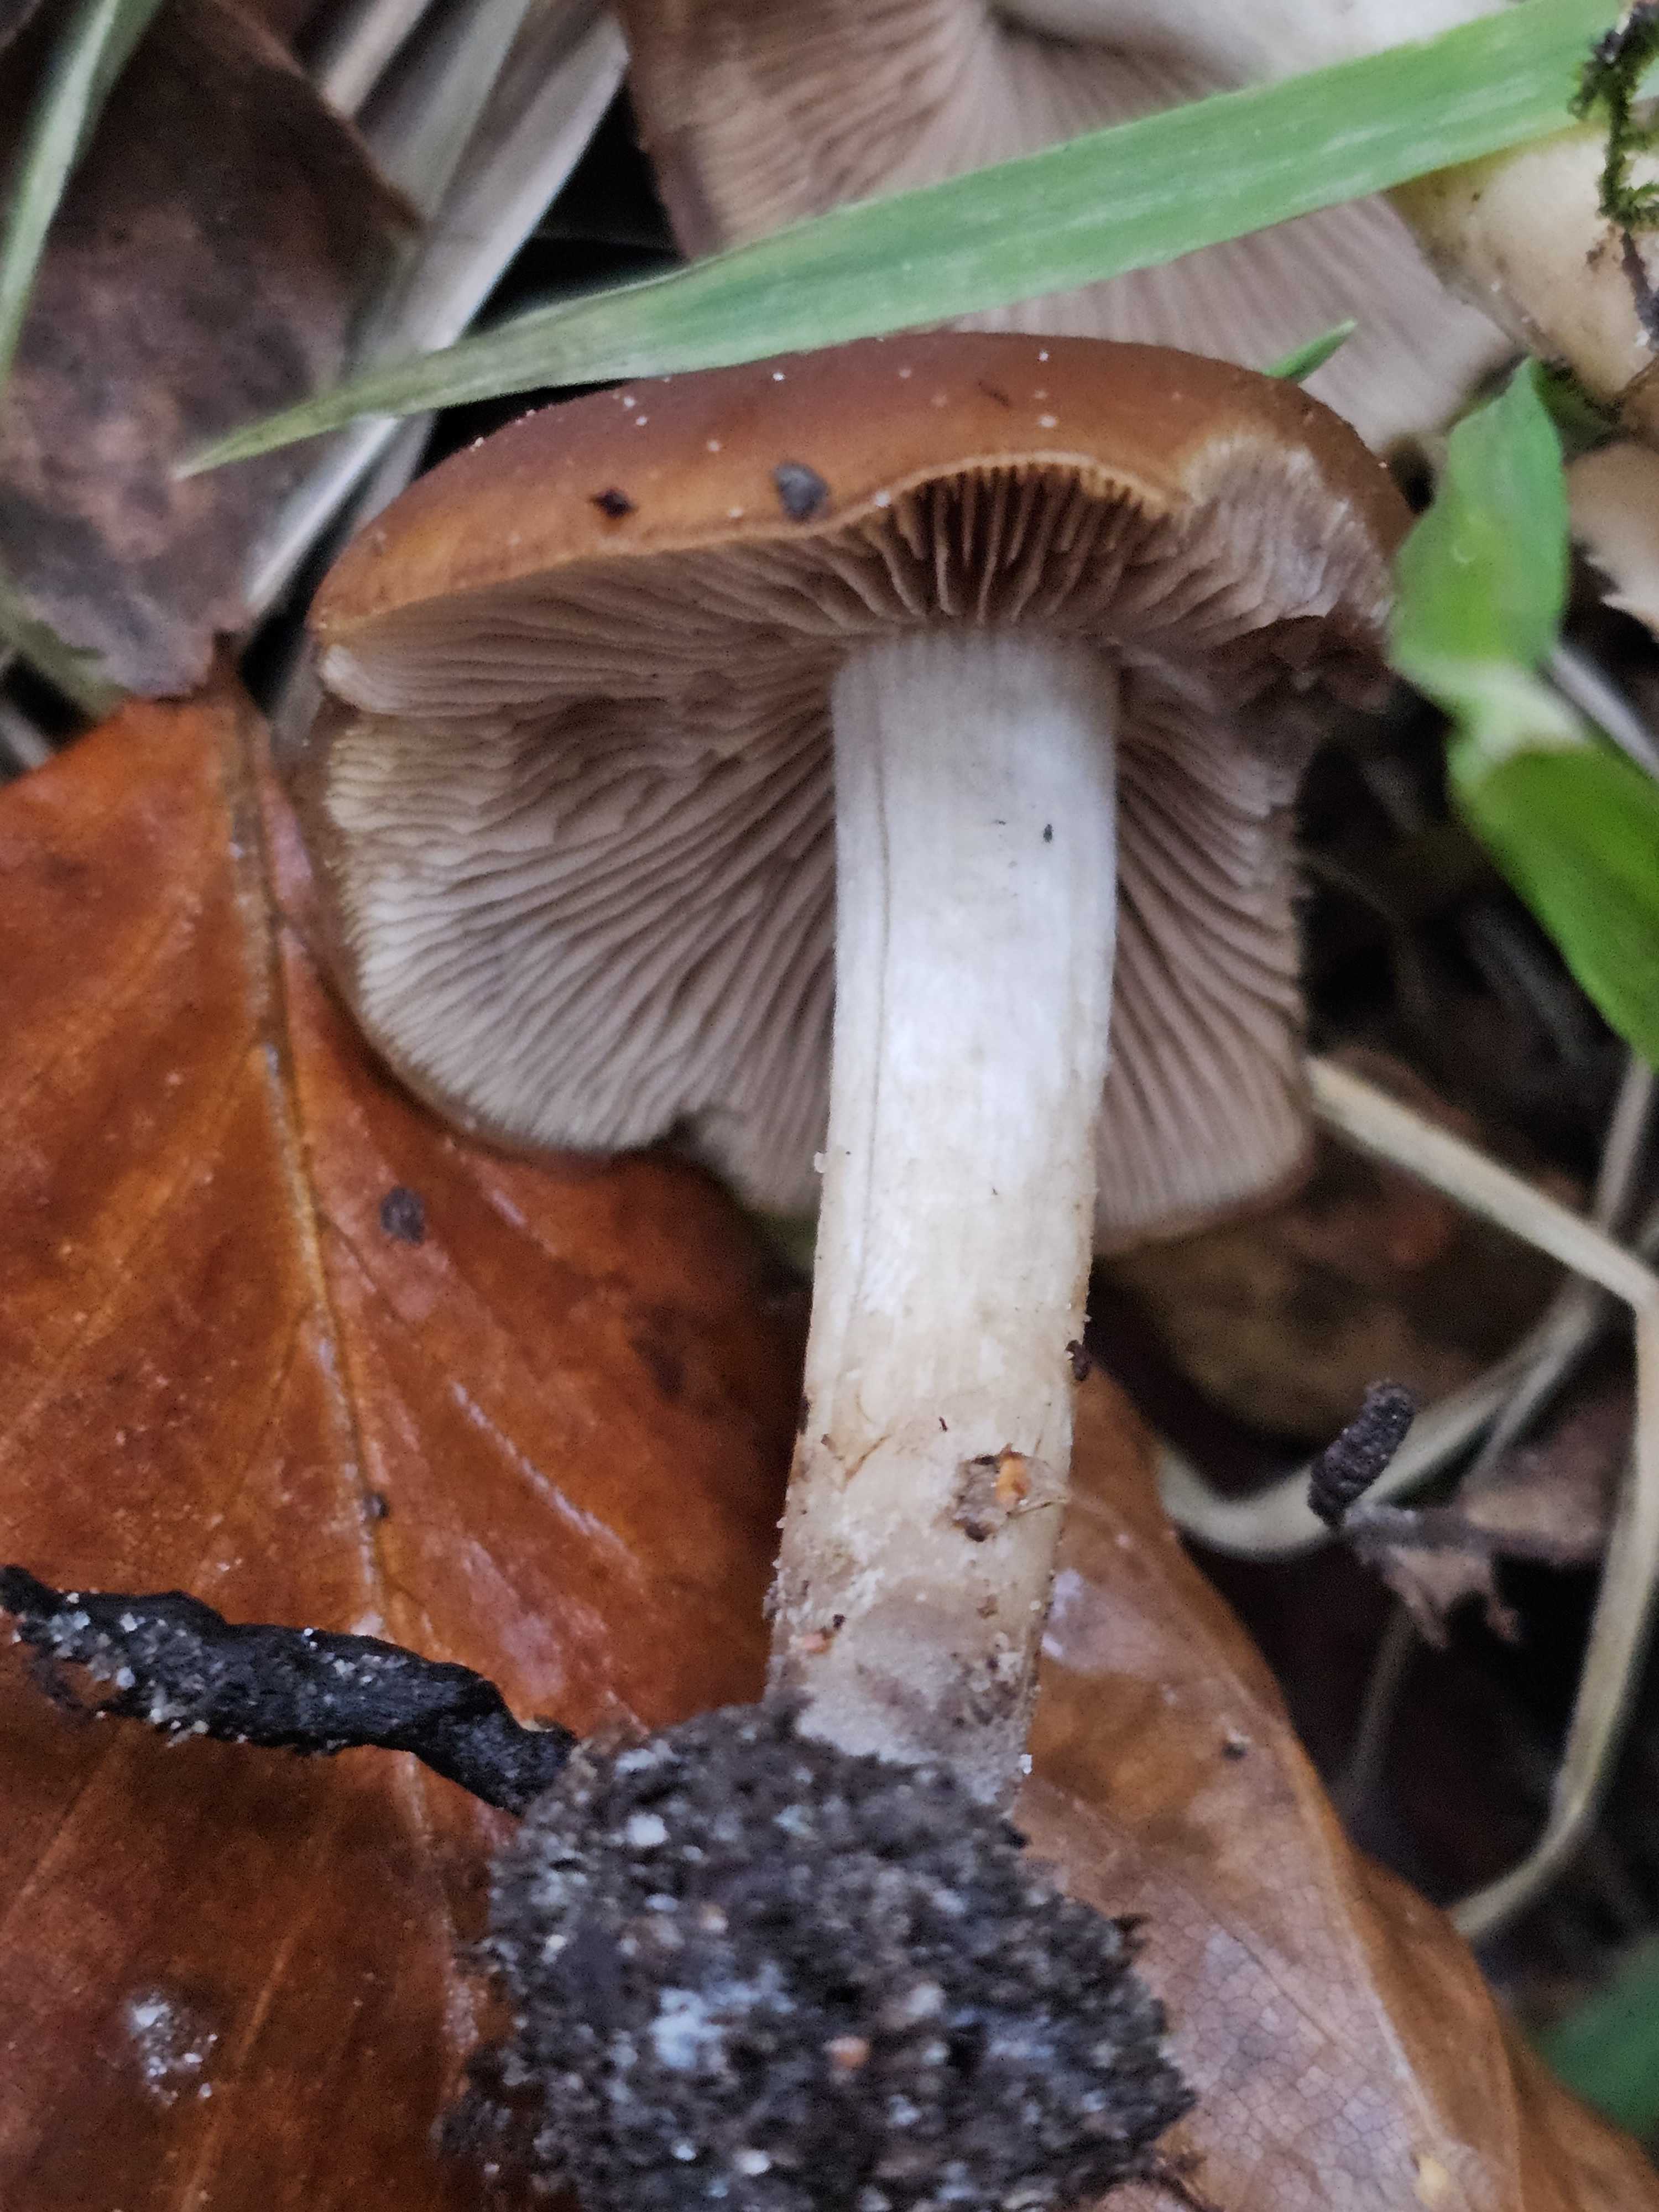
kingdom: Fungi
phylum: Basidiomycota
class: Agaricomycetes
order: Agaricales
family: Psathyrellaceae
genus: Psathyrella
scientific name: Psathyrella
